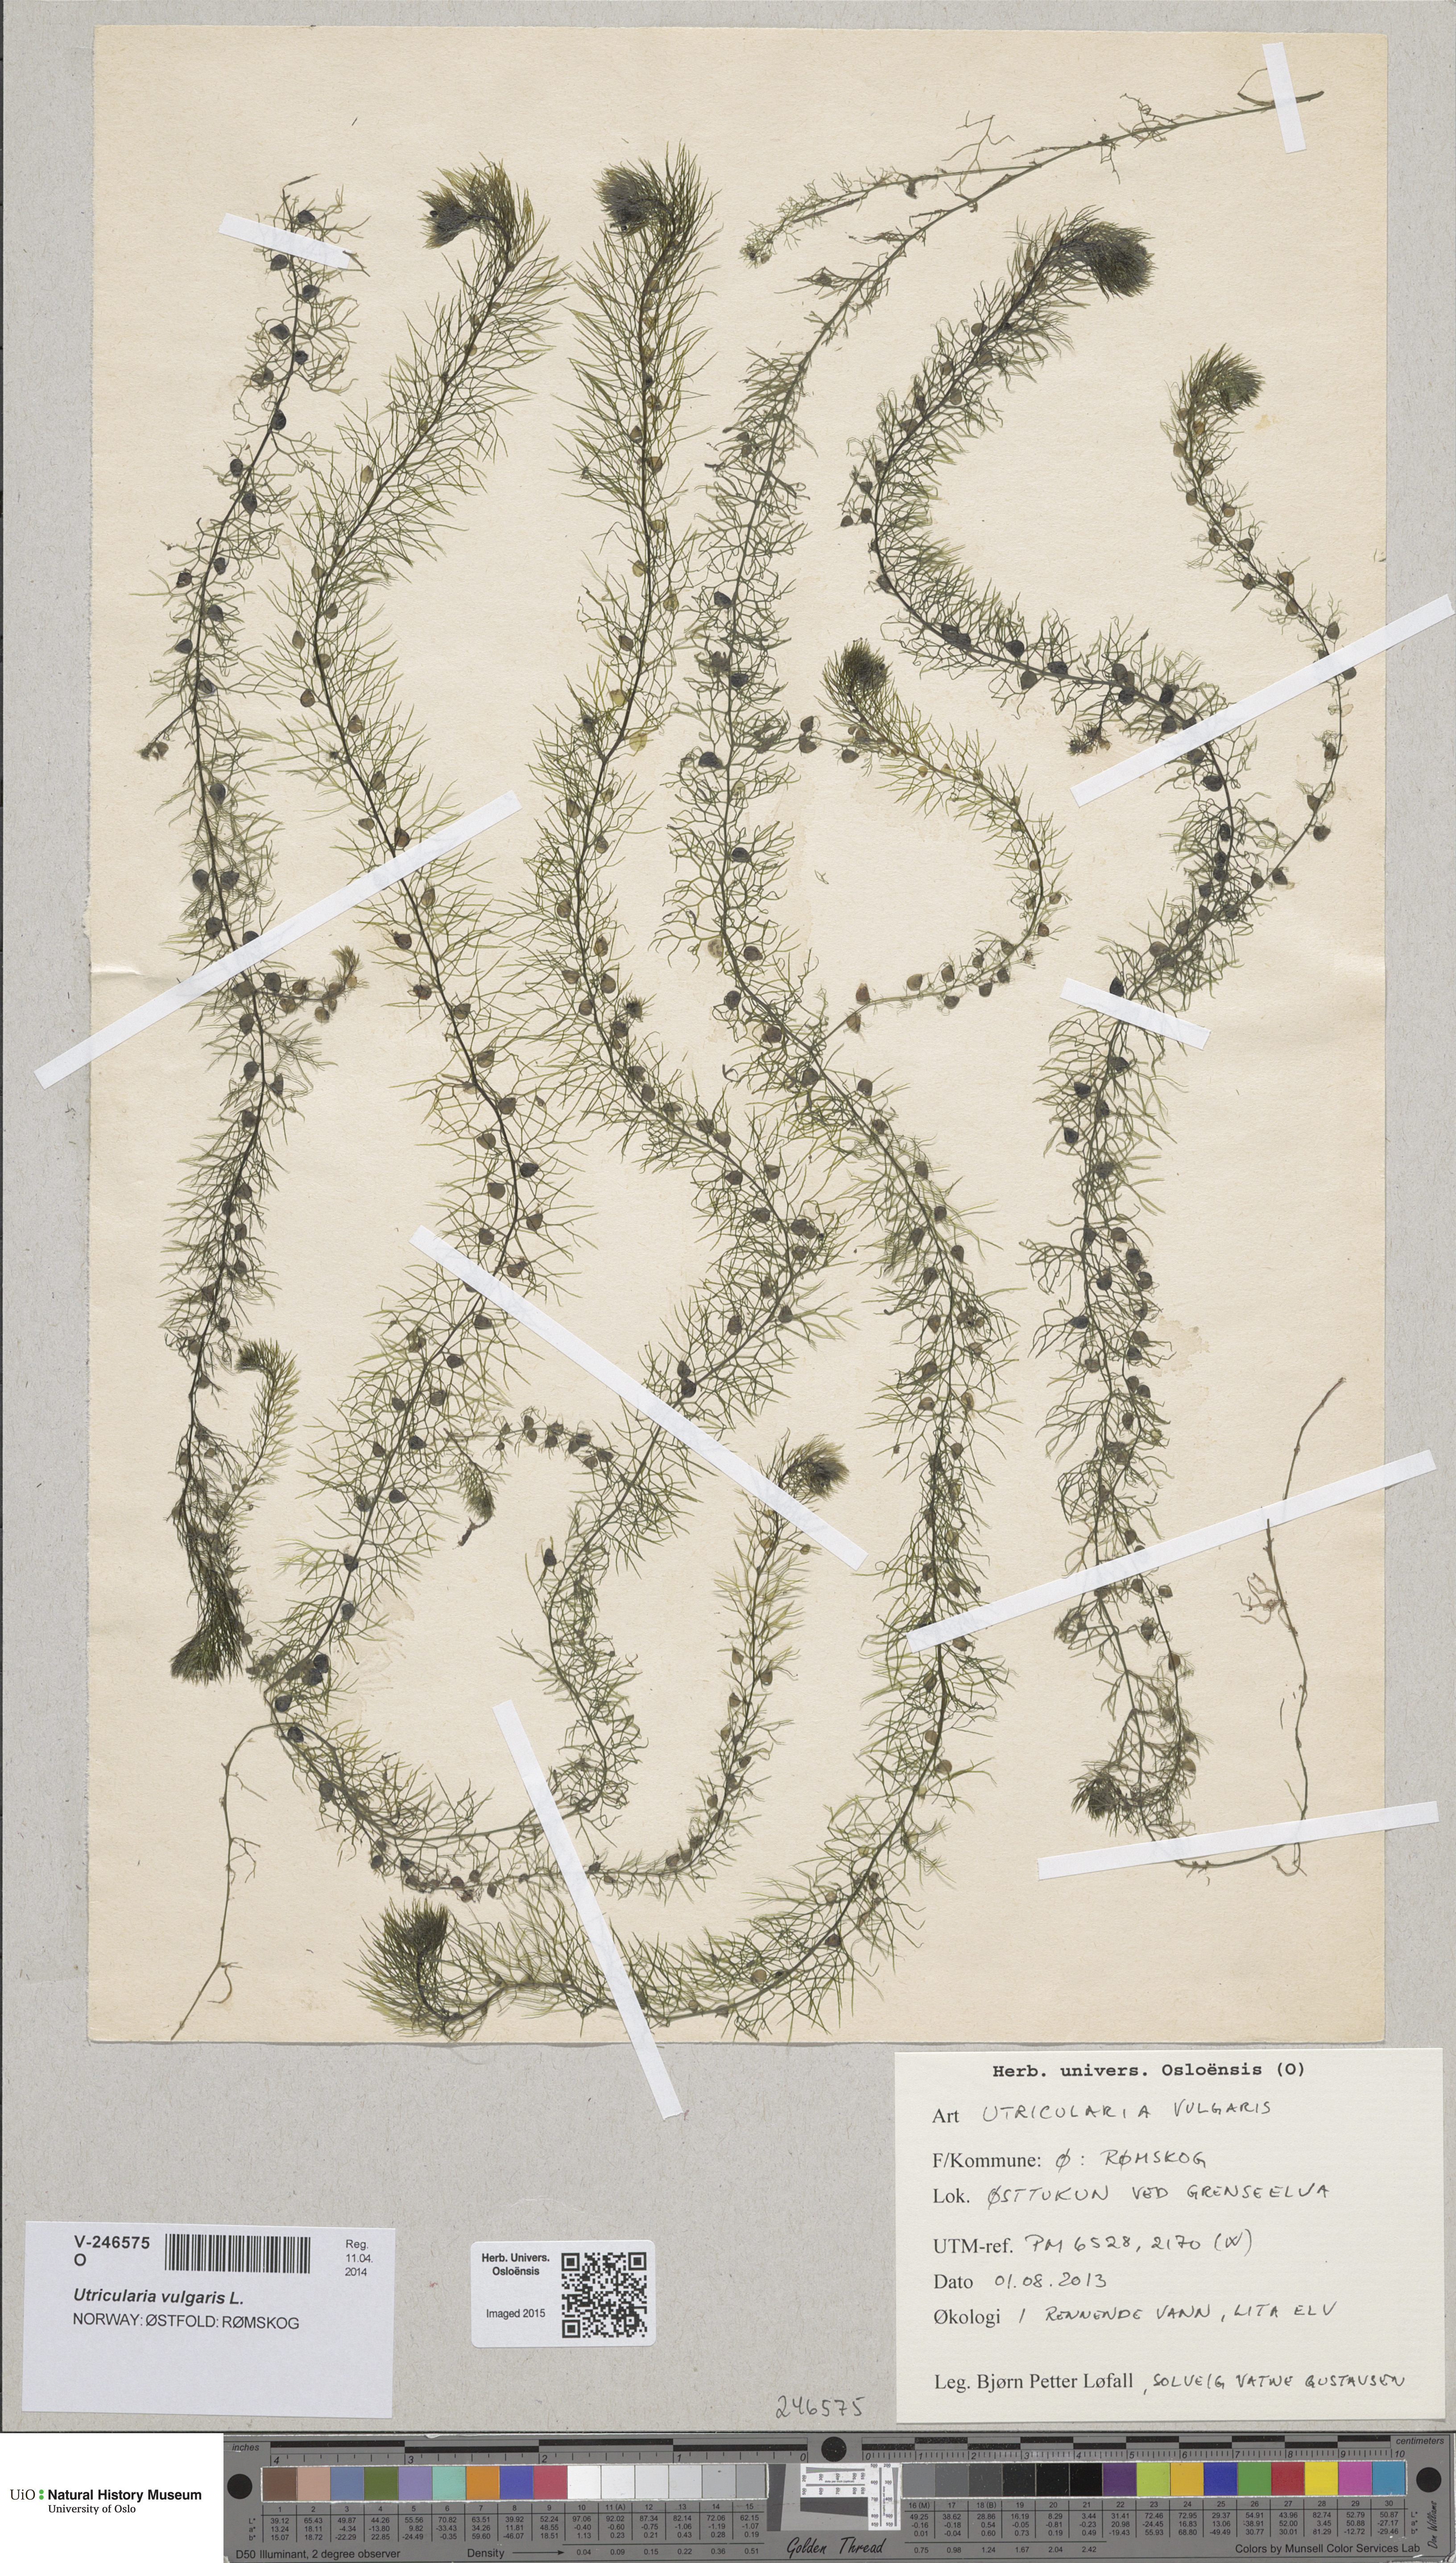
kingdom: Plantae
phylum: Tracheophyta
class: Magnoliopsida
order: Lamiales
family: Lentibulariaceae
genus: Utricularia
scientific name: Utricularia vulgaris
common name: Greater bladderwort
